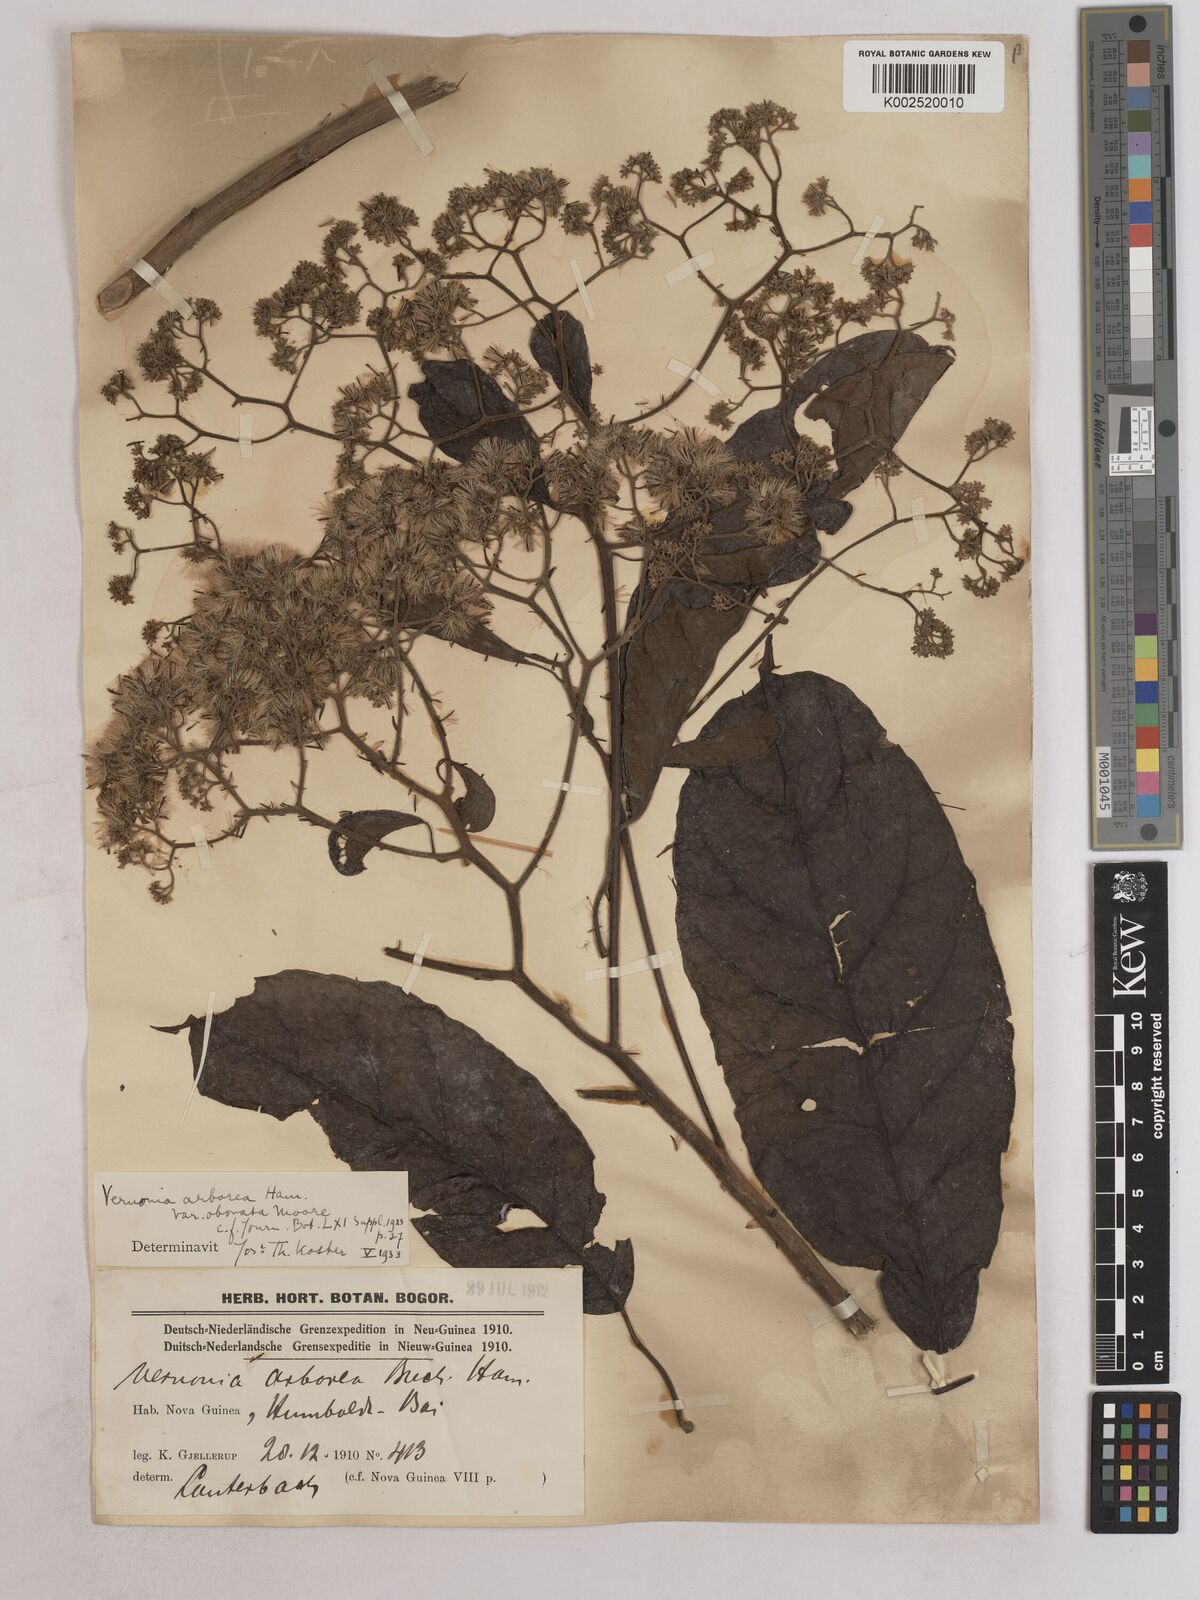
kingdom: Plantae
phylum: Tracheophyta
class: Magnoliopsida
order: Asterales
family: Asteraceae
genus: Strobocalyx
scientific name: Strobocalyx arborea
